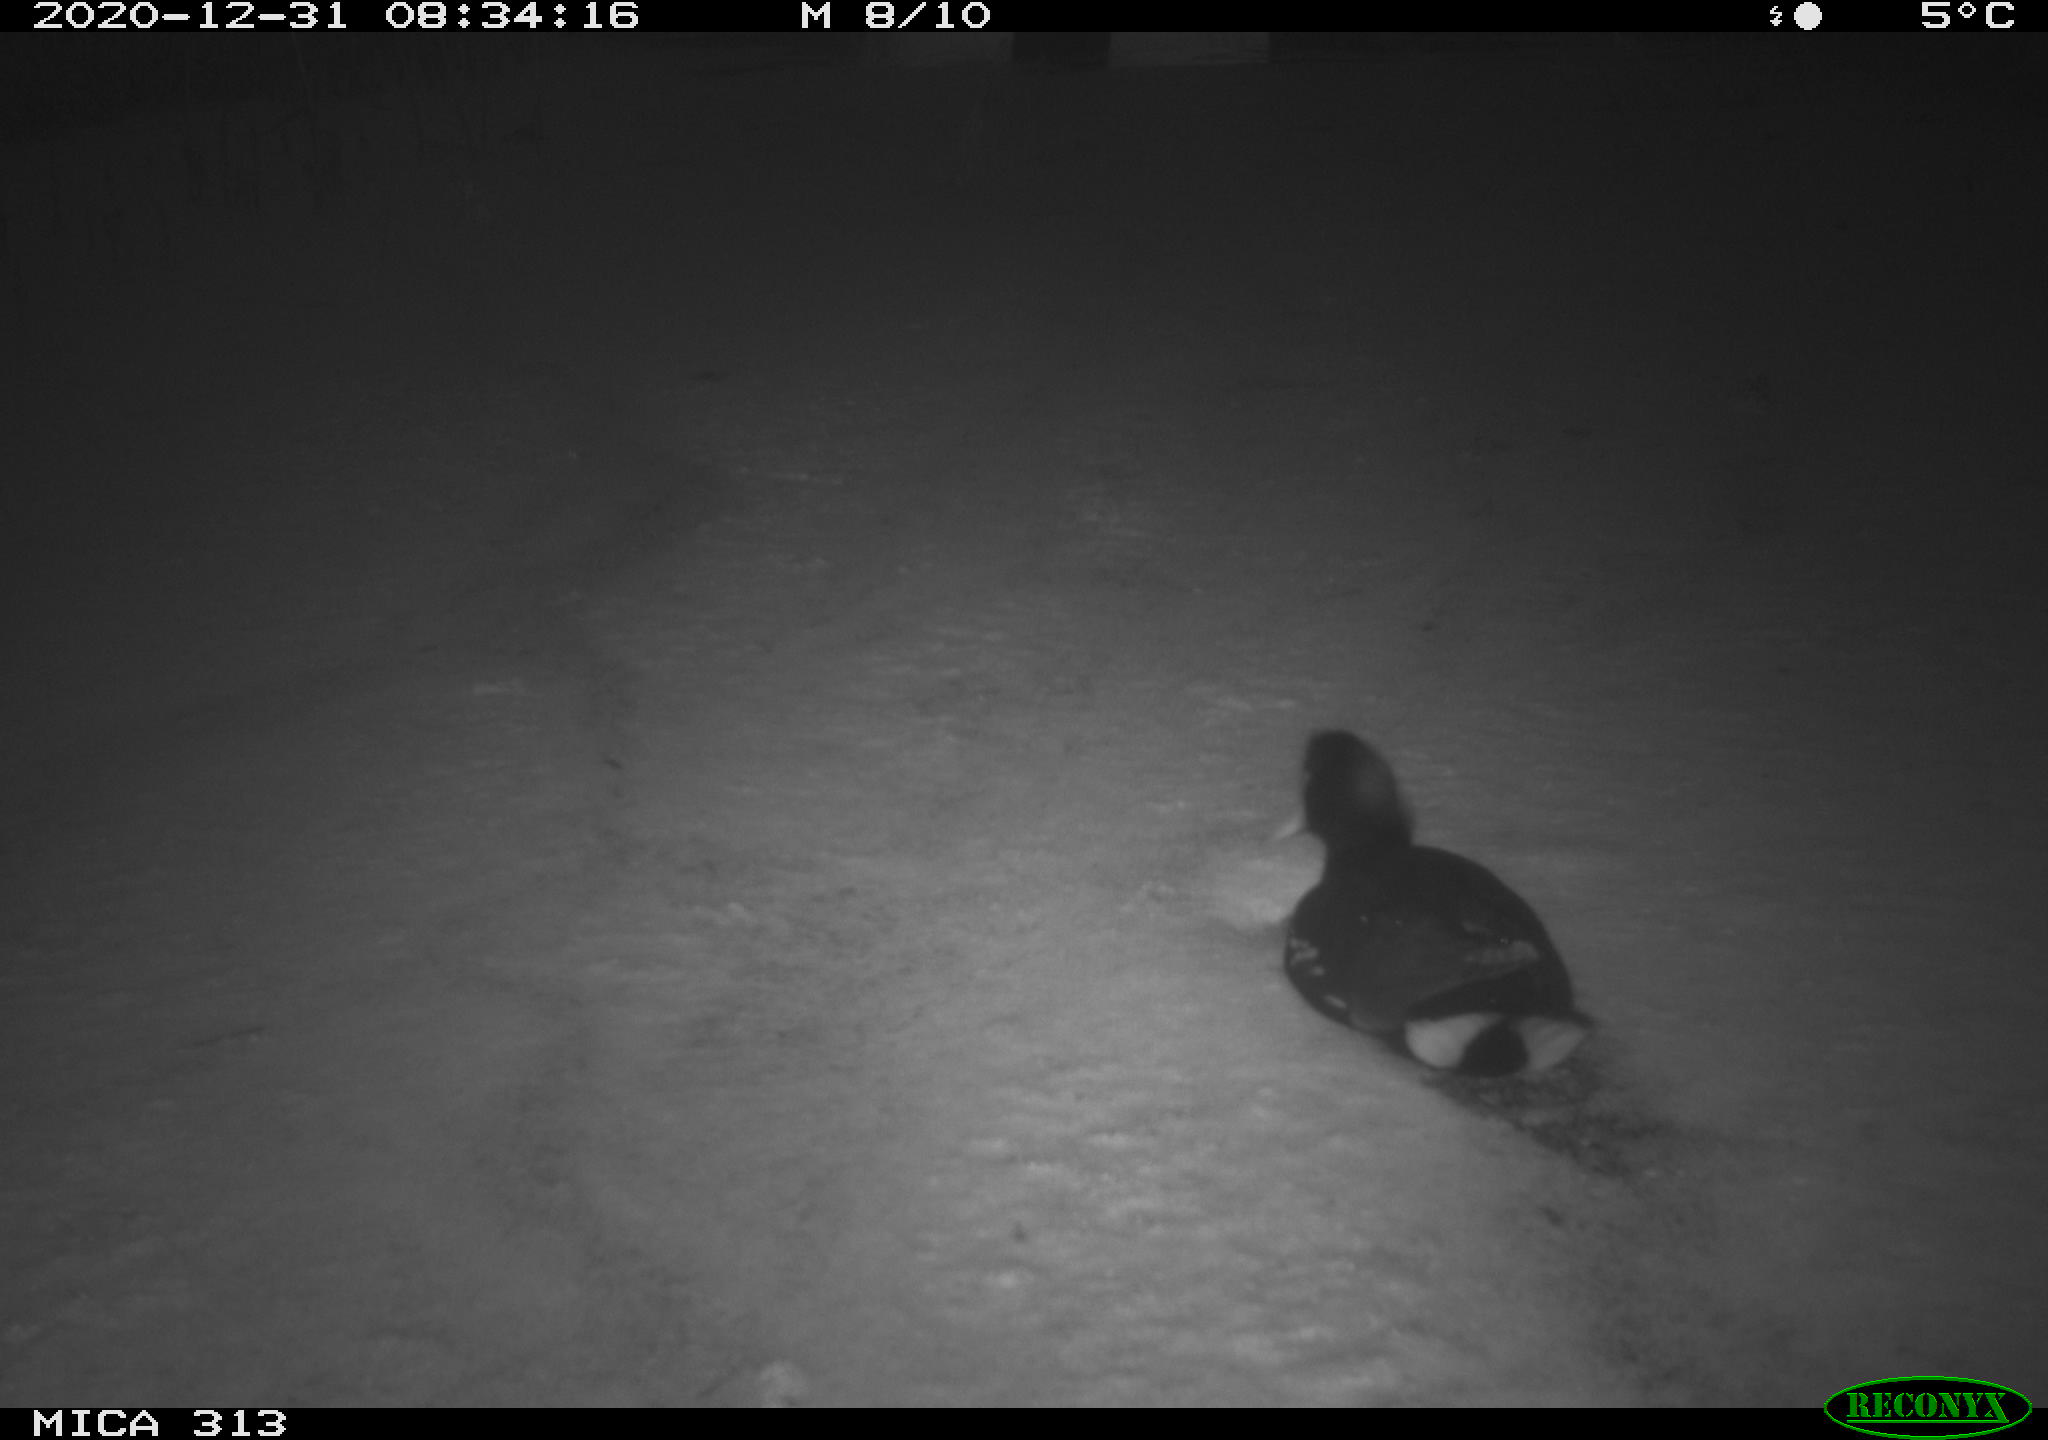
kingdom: Animalia
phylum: Chordata
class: Aves
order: Gruiformes
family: Rallidae
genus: Gallinula
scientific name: Gallinula chloropus
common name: Common moorhen
